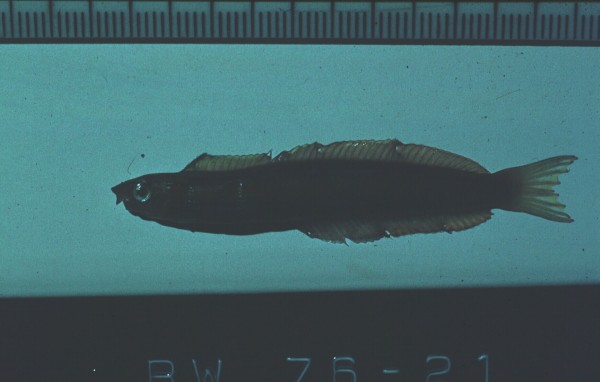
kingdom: Animalia
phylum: Chordata
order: Perciformes
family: Blenniidae
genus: Plagiotremus
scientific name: Plagiotremus rhinorhynchos
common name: Bluestriped fangblenny
